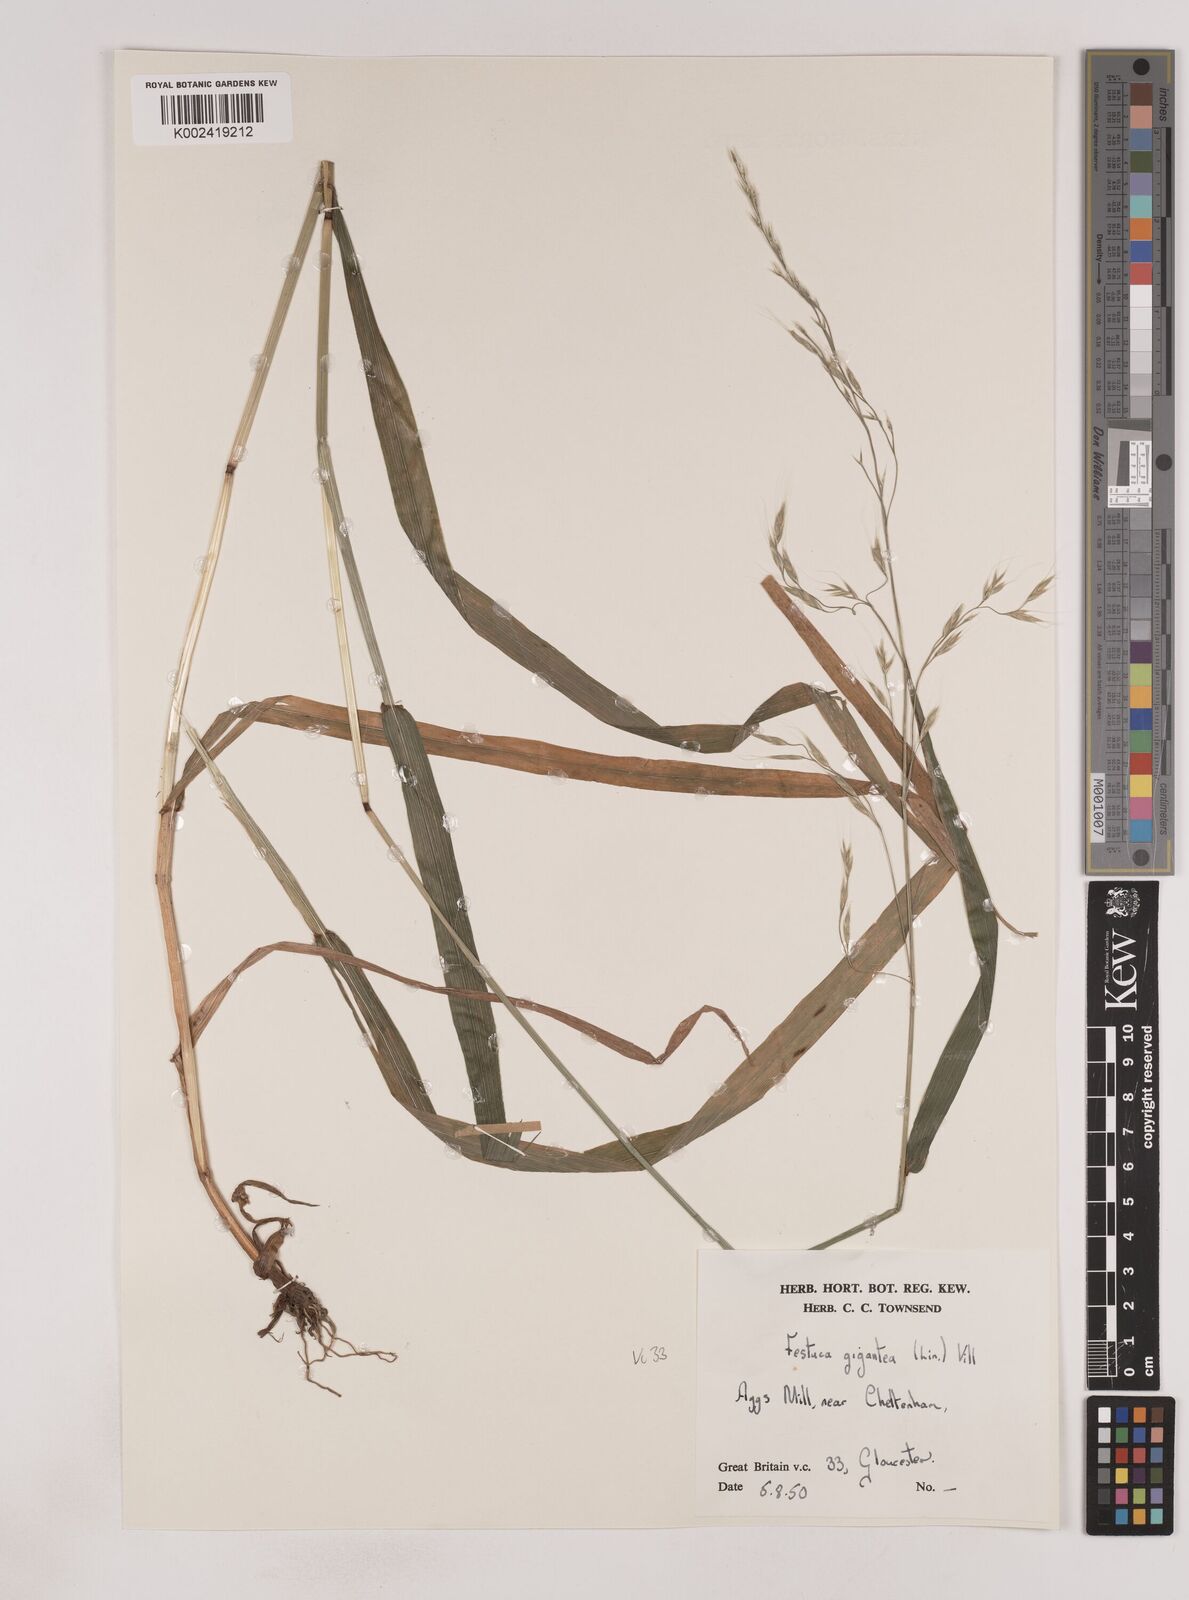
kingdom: Plantae
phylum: Tracheophyta
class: Liliopsida
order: Poales
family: Poaceae
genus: Lolium
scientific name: Lolium giganteum
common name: Giant fescue
